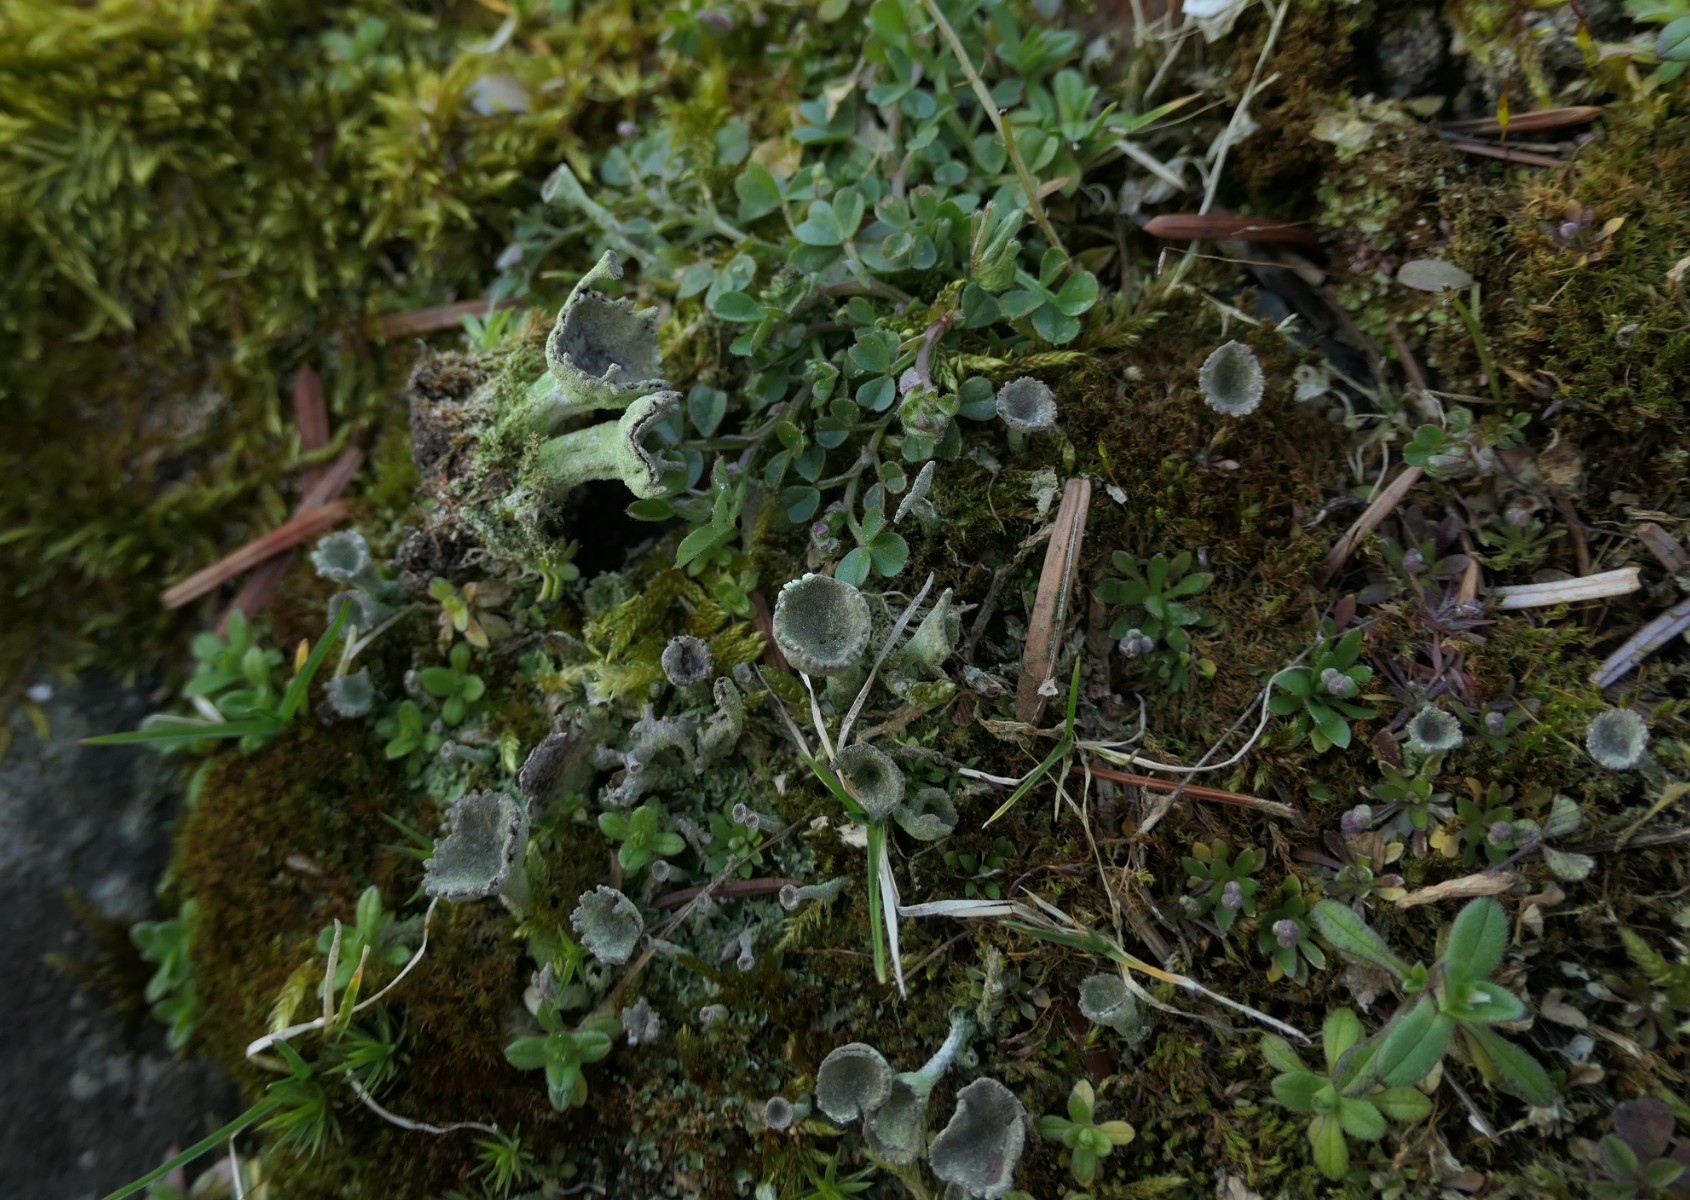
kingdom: Fungi
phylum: Ascomycota
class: Lecanoromycetes
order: Lecanorales
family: Cladoniaceae
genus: Cladonia
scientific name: Cladonia carneola
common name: gulgrøn bægerlav
